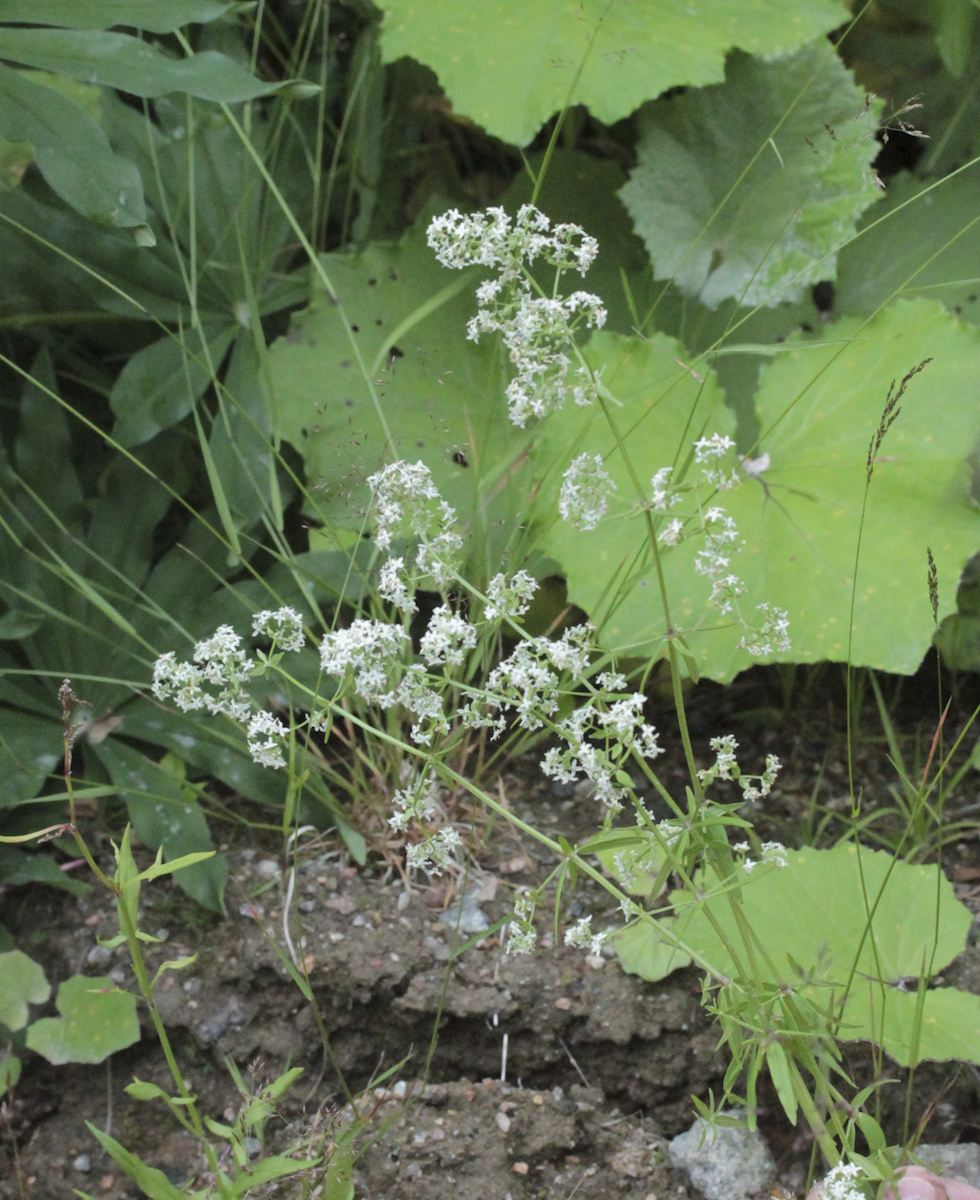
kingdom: Plantae
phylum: Tracheophyta
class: Magnoliopsida
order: Gentianales
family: Rubiaceae
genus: Galium
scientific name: Galium boreale
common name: Northern bedstraw
